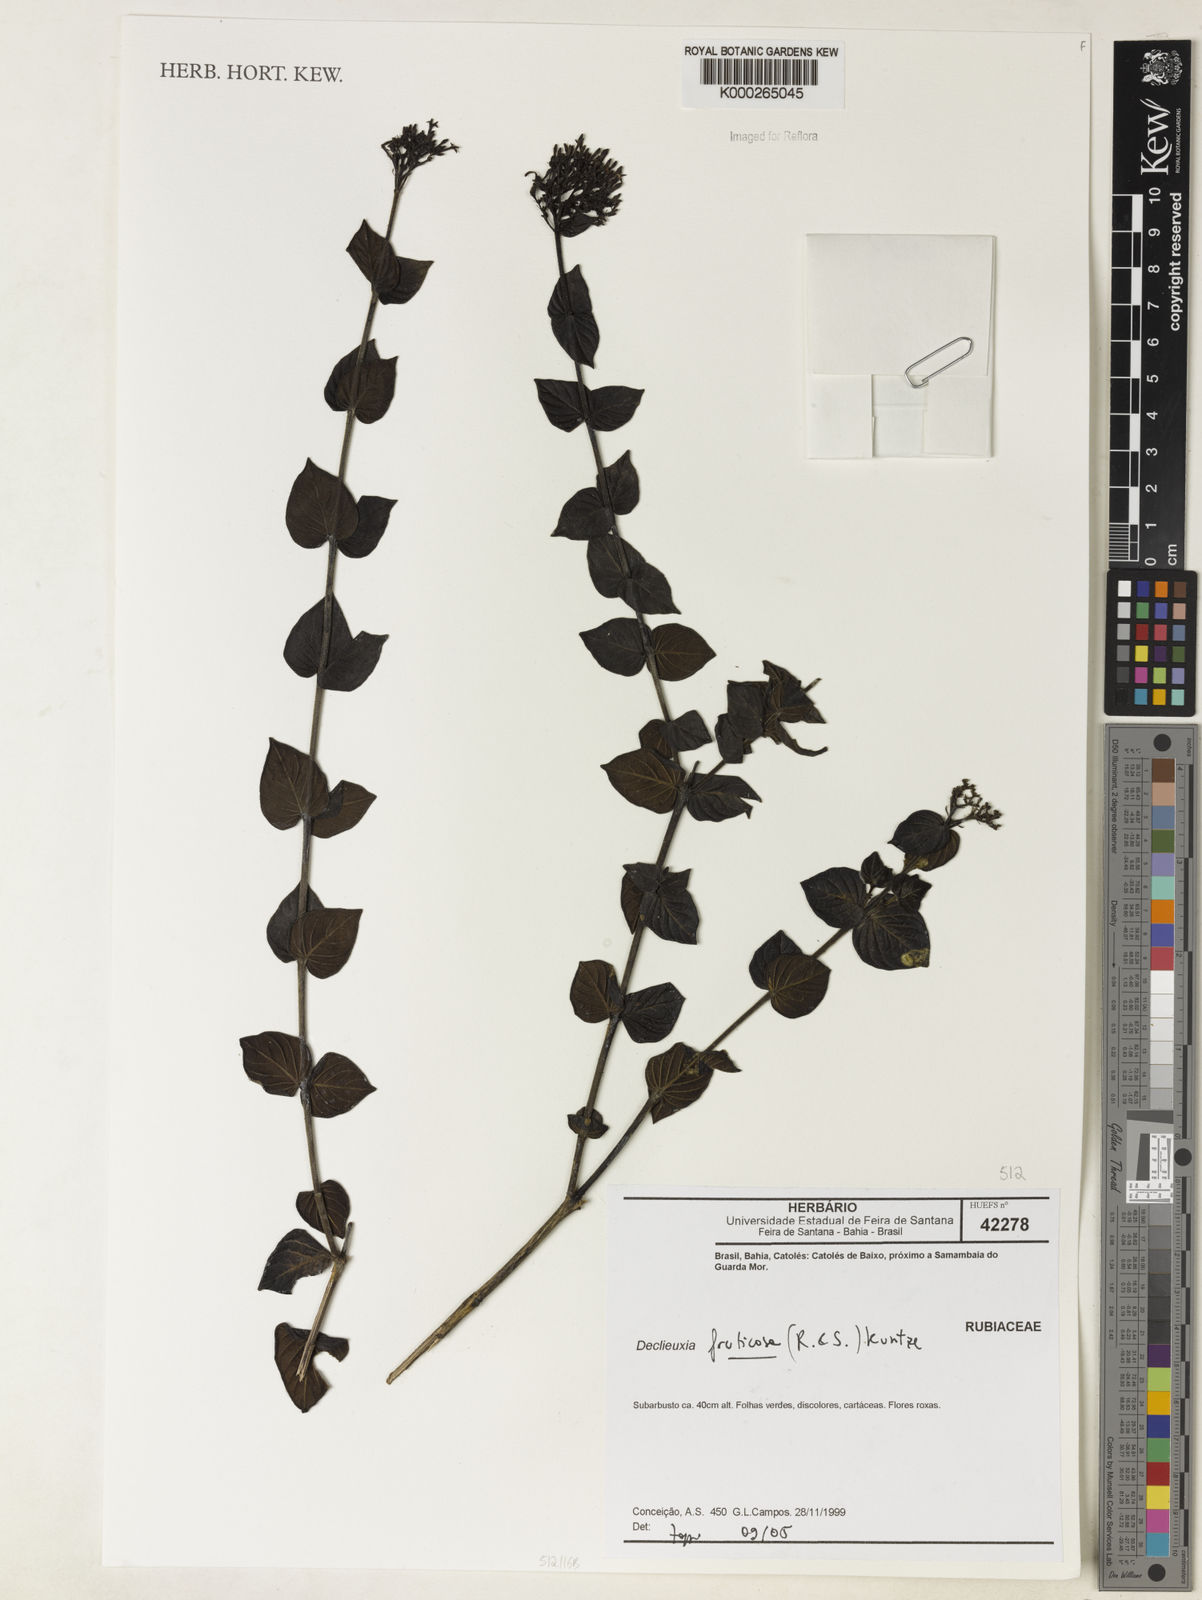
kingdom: Plantae
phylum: Tracheophyta
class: Magnoliopsida
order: Gentianales
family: Rubiaceae
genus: Declieuxia
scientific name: Declieuxia fruticosa
